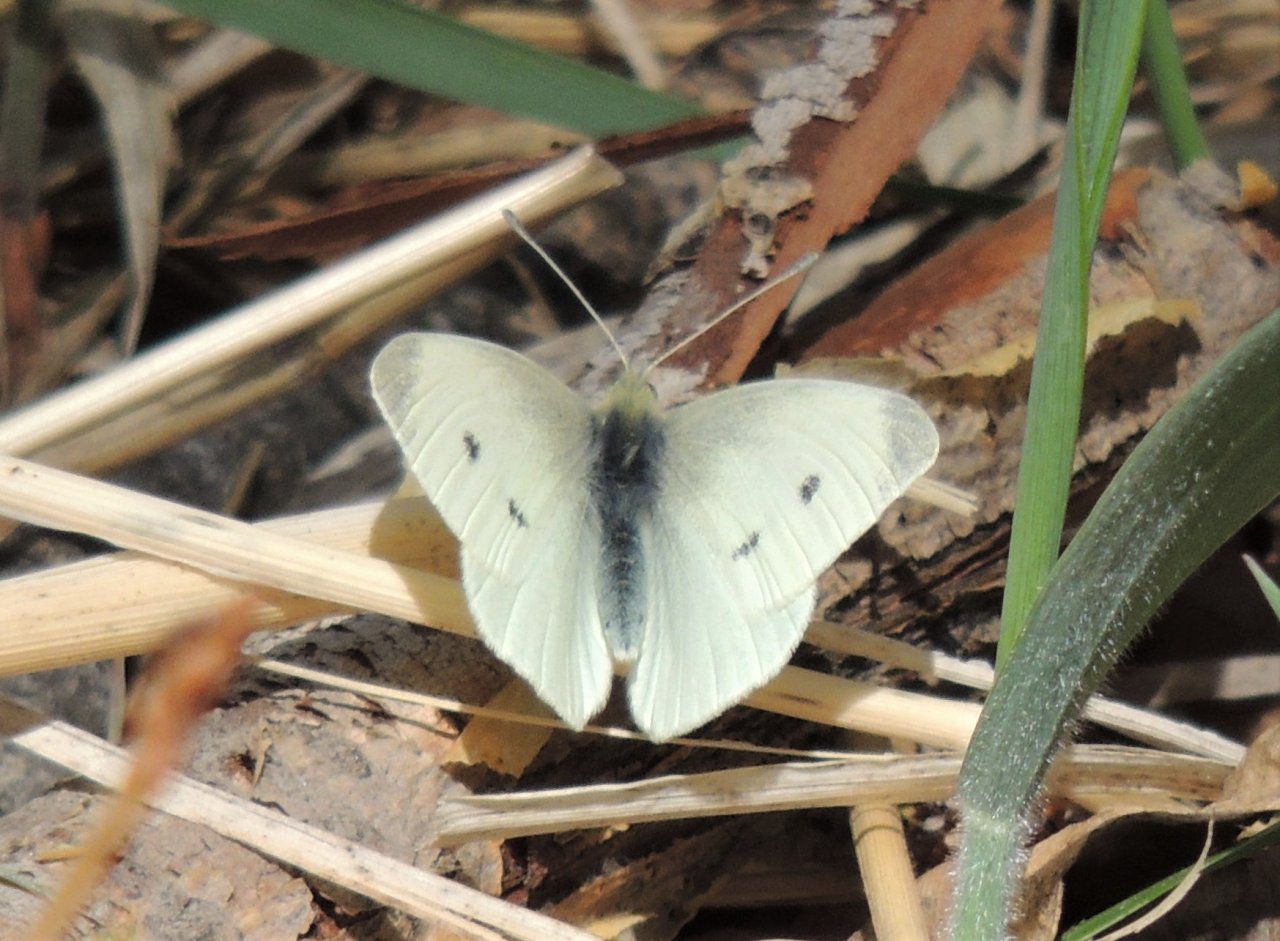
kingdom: Animalia
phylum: Arthropoda
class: Insecta
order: Lepidoptera
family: Pieridae
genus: Pieris
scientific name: Pieris rapae
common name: Cabbage White
